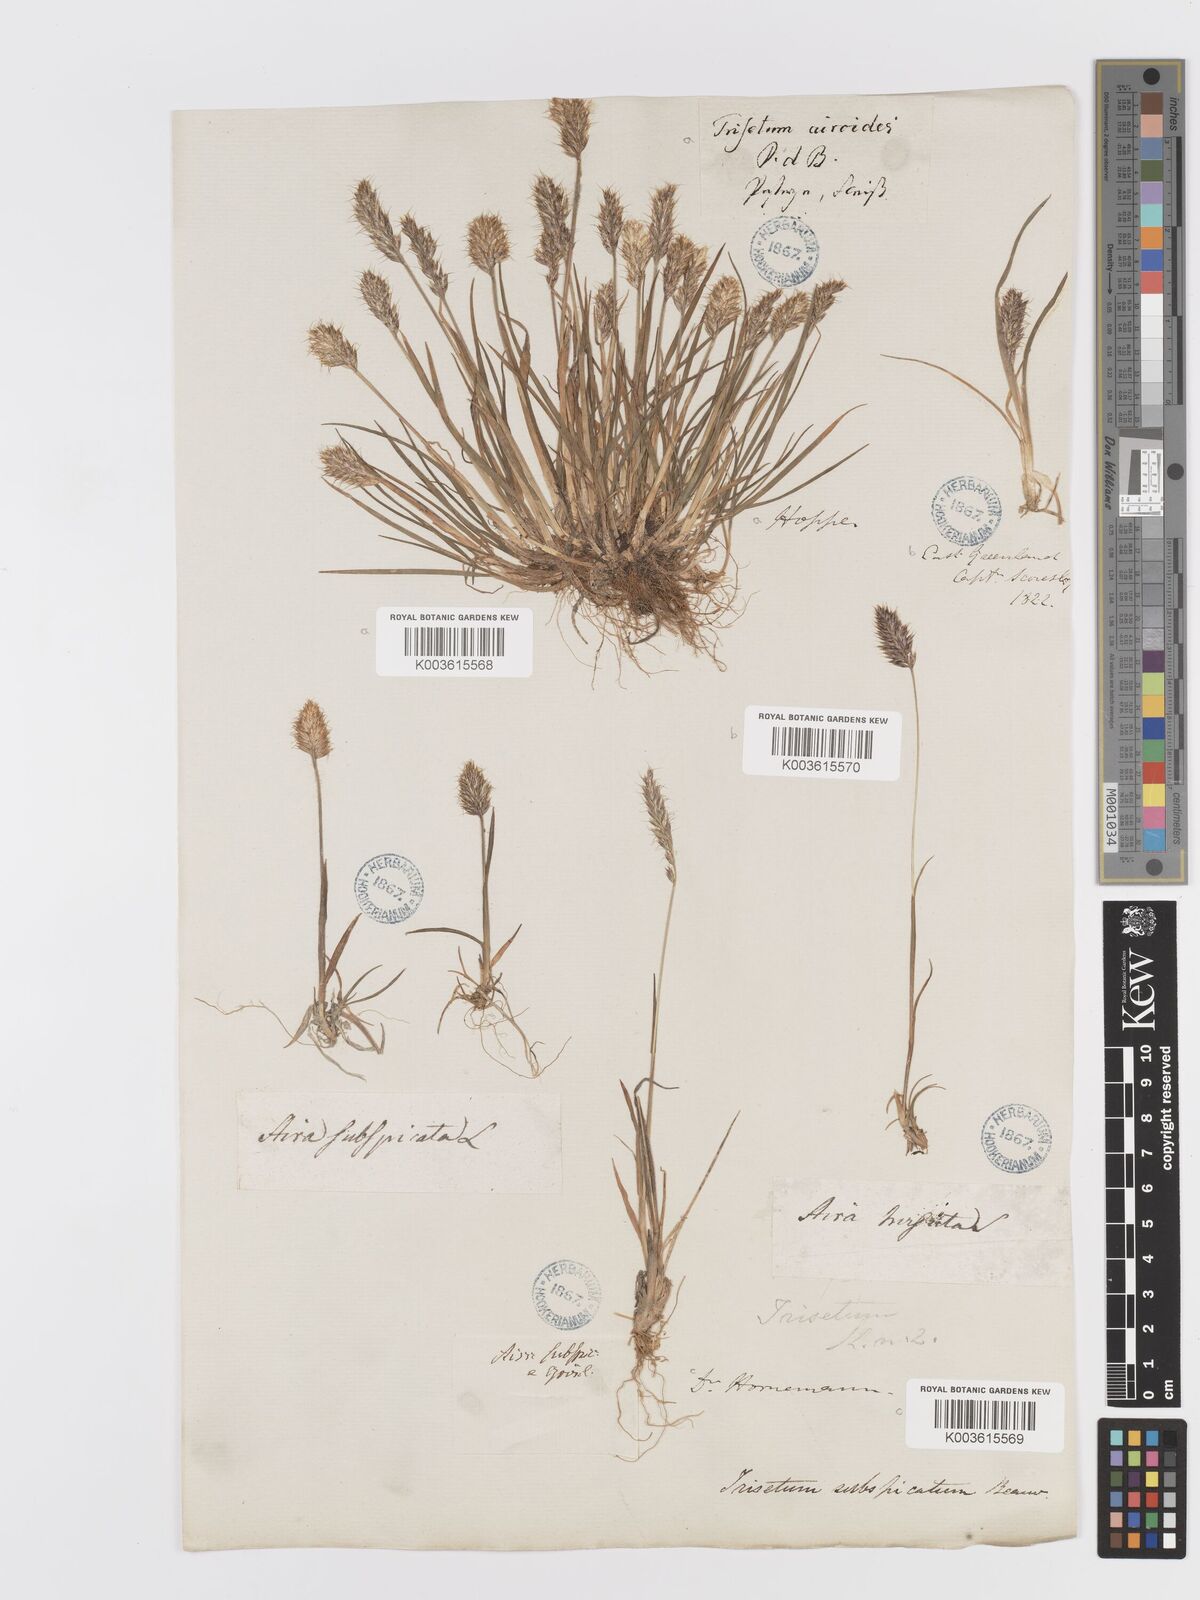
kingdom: Plantae
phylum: Tracheophyta
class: Liliopsida
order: Poales
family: Poaceae
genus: Koeleria
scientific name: Koeleria spicata
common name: Mountain trisetum
